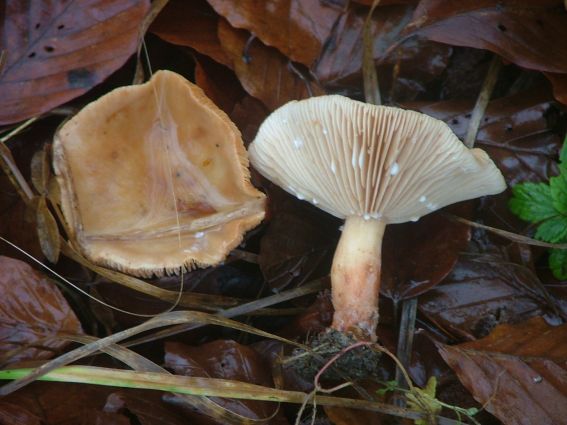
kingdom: Fungi
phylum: Basidiomycota
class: Agaricomycetes
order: Russulales
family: Russulaceae
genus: Lactarius
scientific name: Lactarius subdulcis
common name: sødlig mælkehat
